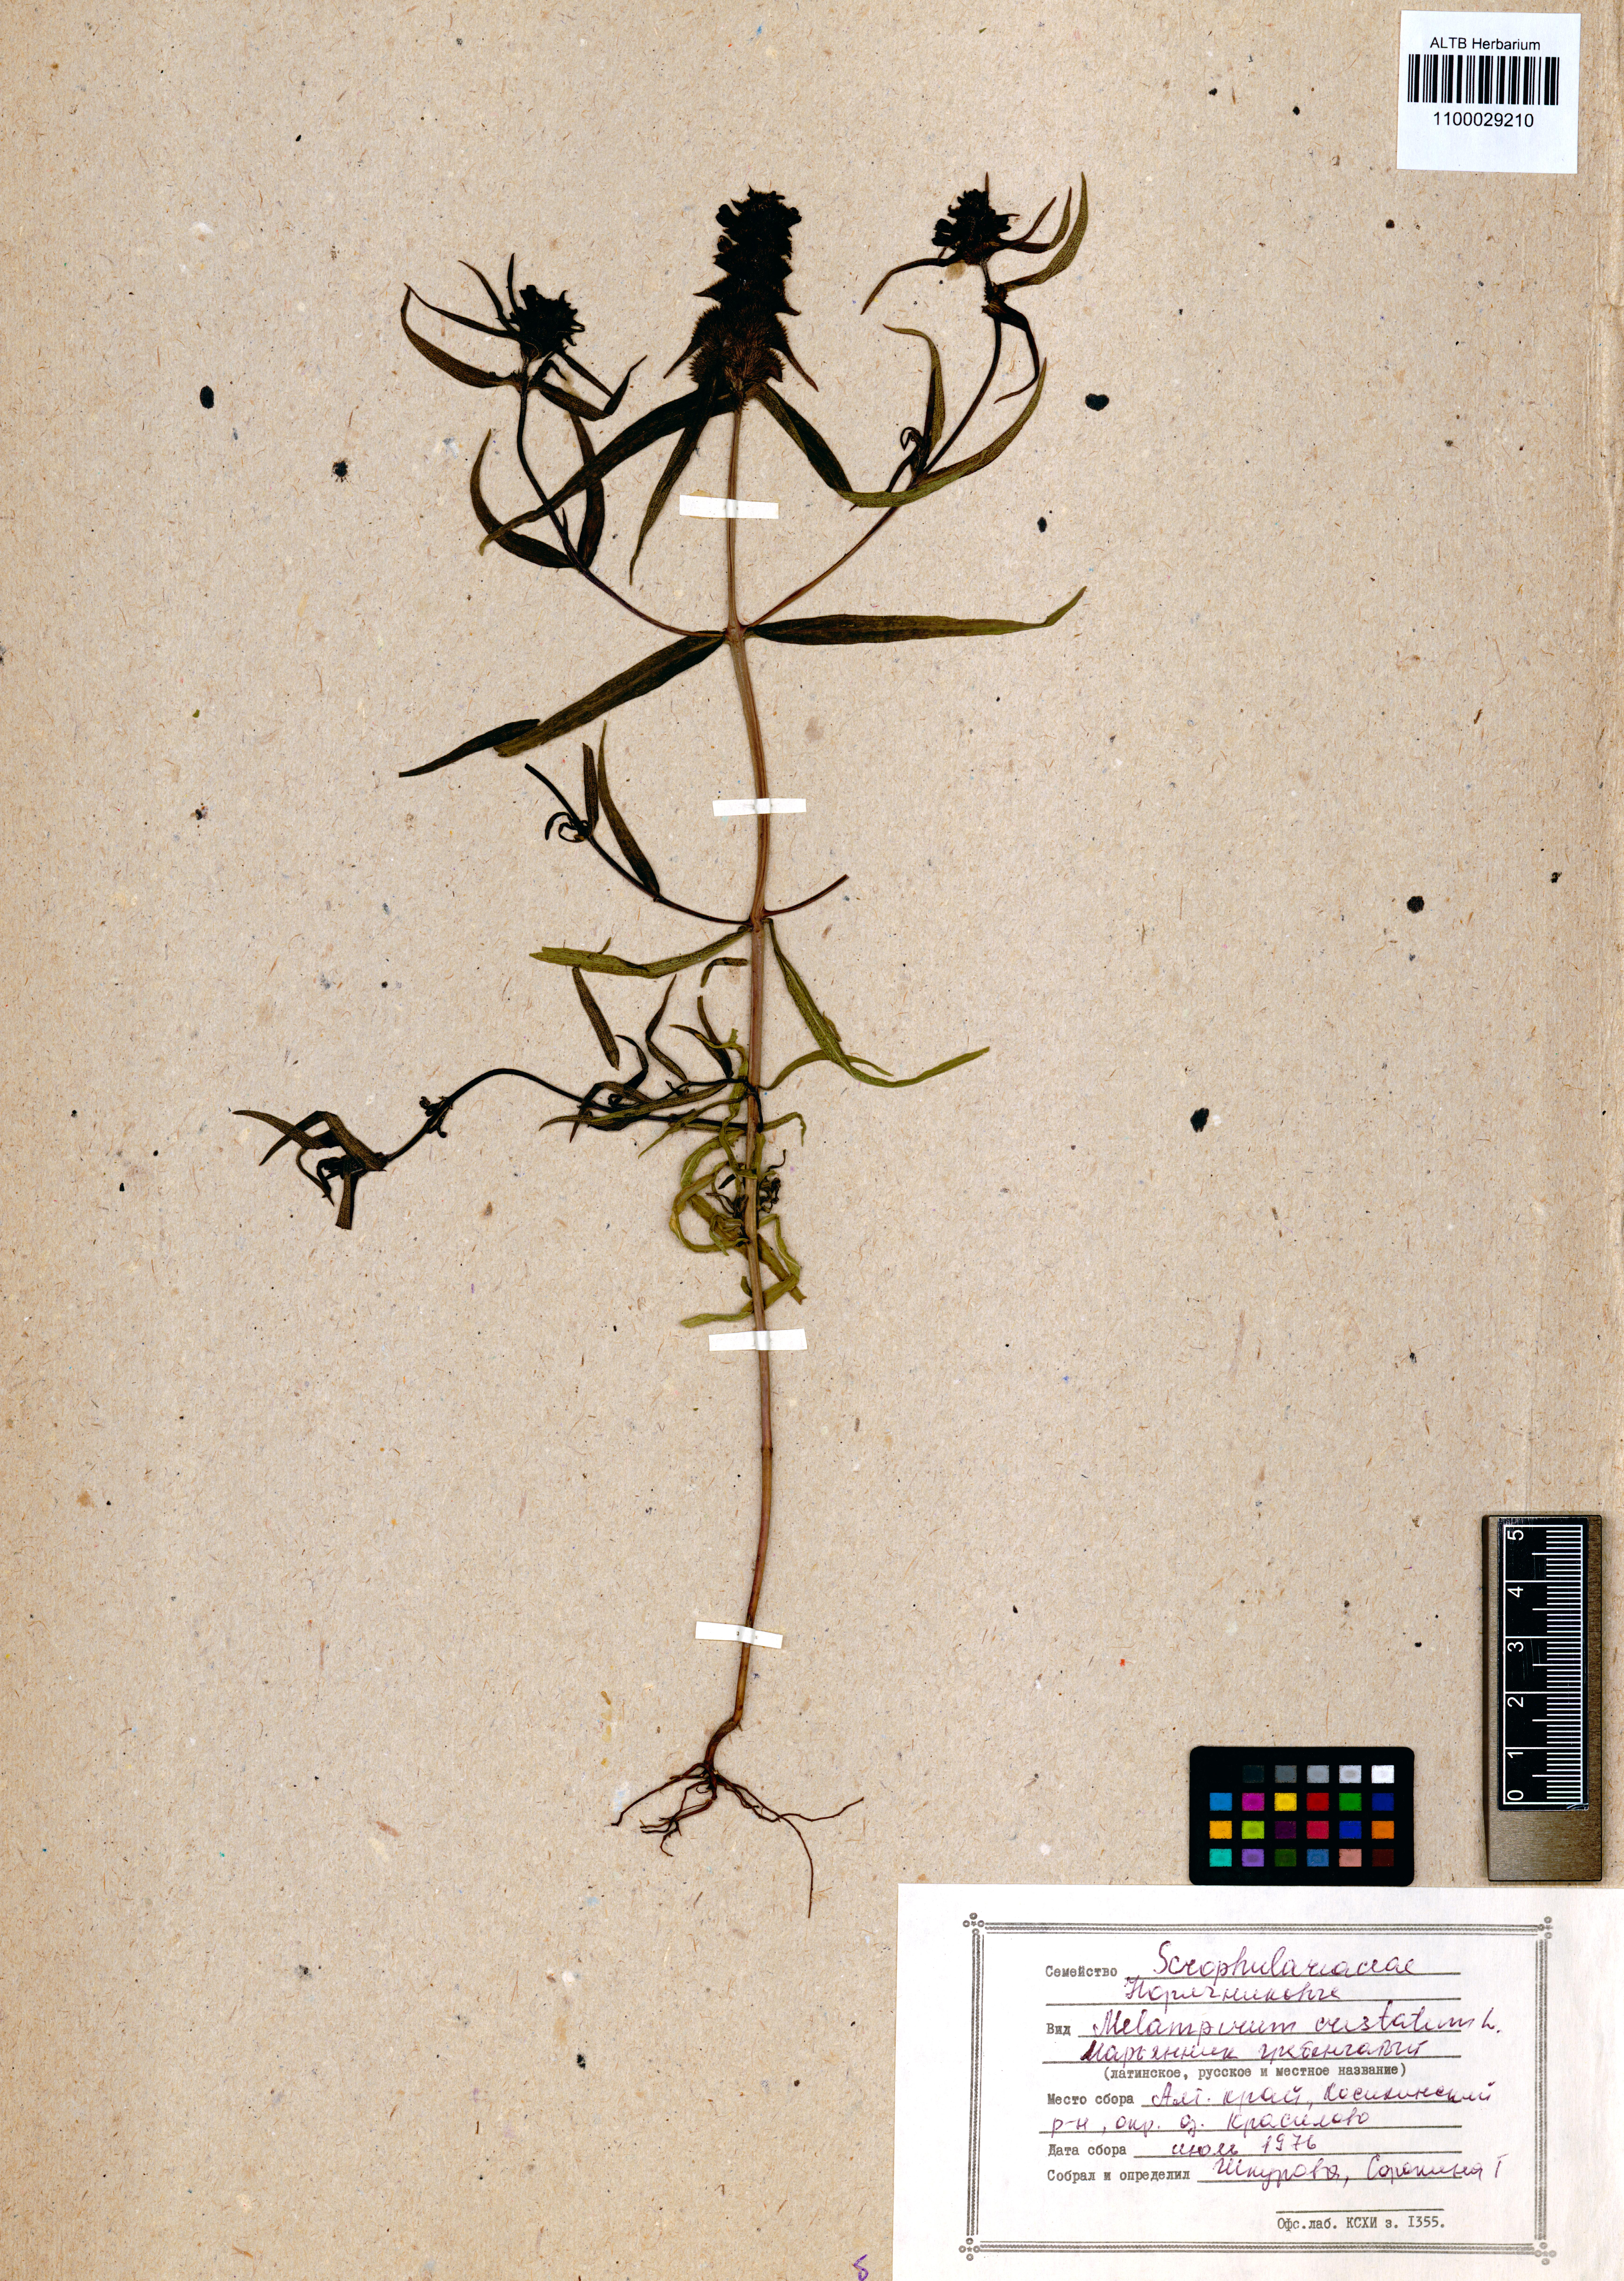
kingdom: Plantae
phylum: Tracheophyta
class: Magnoliopsida
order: Lamiales
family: Orobanchaceae
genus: Melampyrum
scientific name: Melampyrum cristatum
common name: Crested cow-wheat
